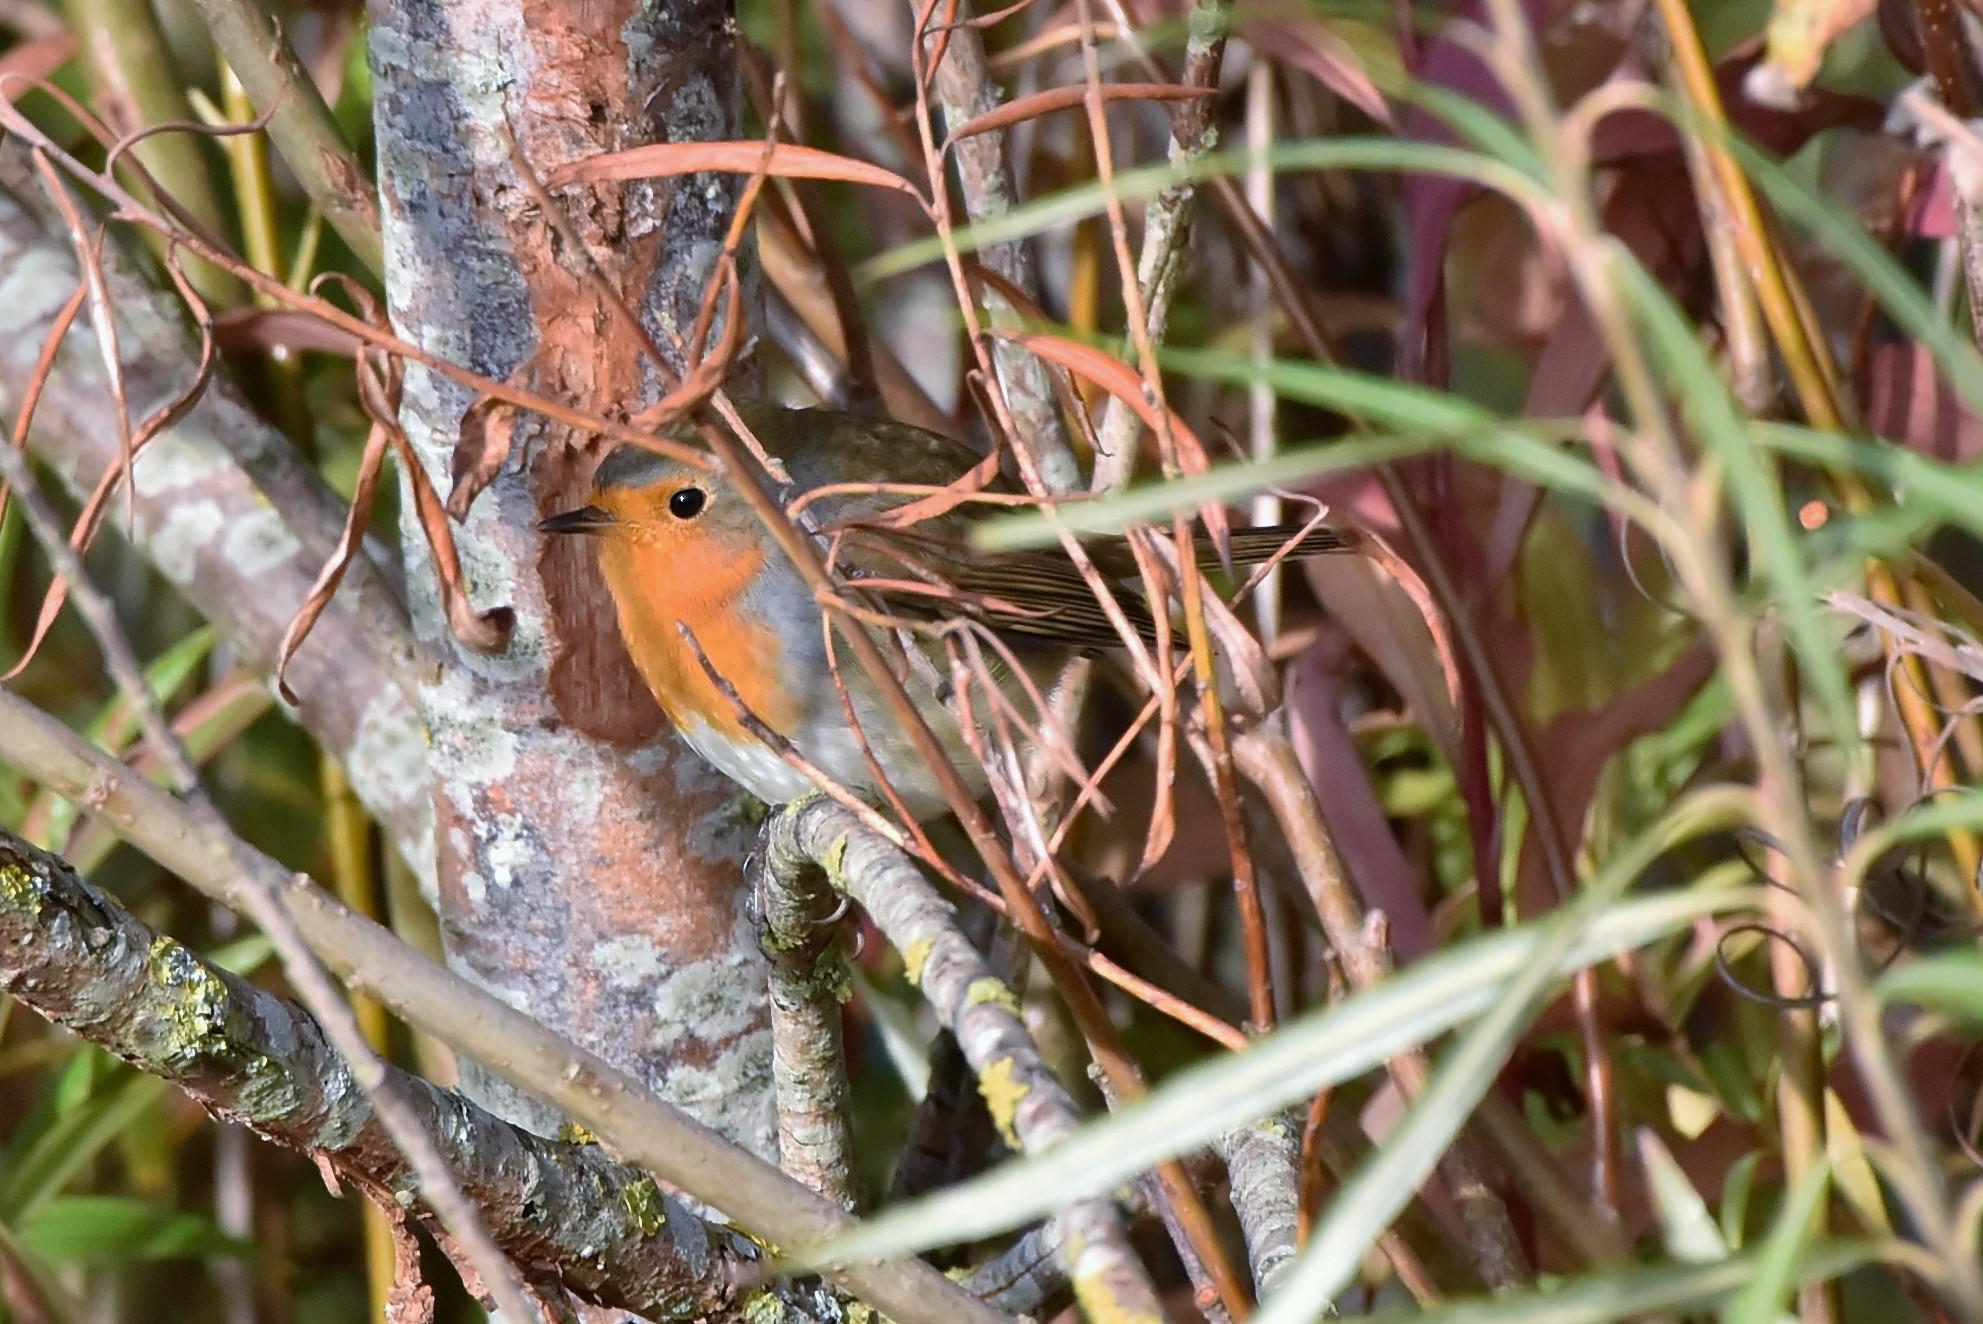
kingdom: Animalia
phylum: Chordata
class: Aves
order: Passeriformes
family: Muscicapidae
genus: Erithacus
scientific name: Erithacus rubecula
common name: Rødhals/rødkælk
